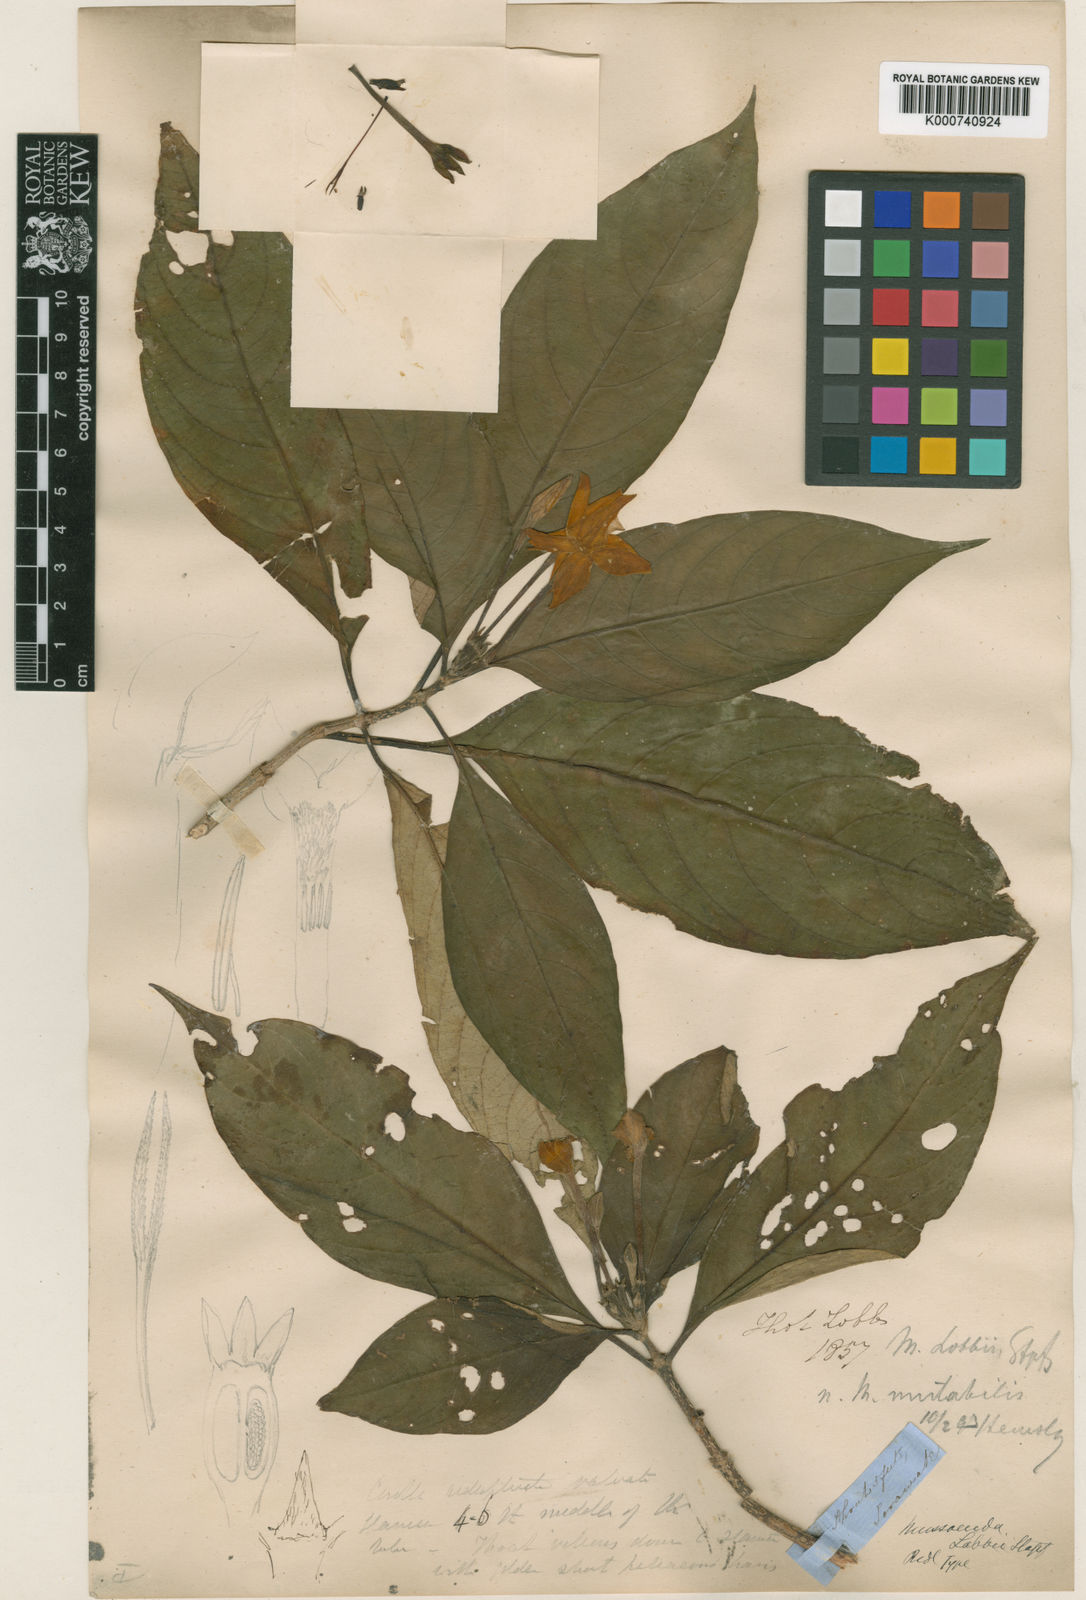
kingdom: Plantae
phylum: Tracheophyta
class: Magnoliopsida
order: Gentianales
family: Rubiaceae
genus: Mussaenda
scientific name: Mussaenda lobbii
